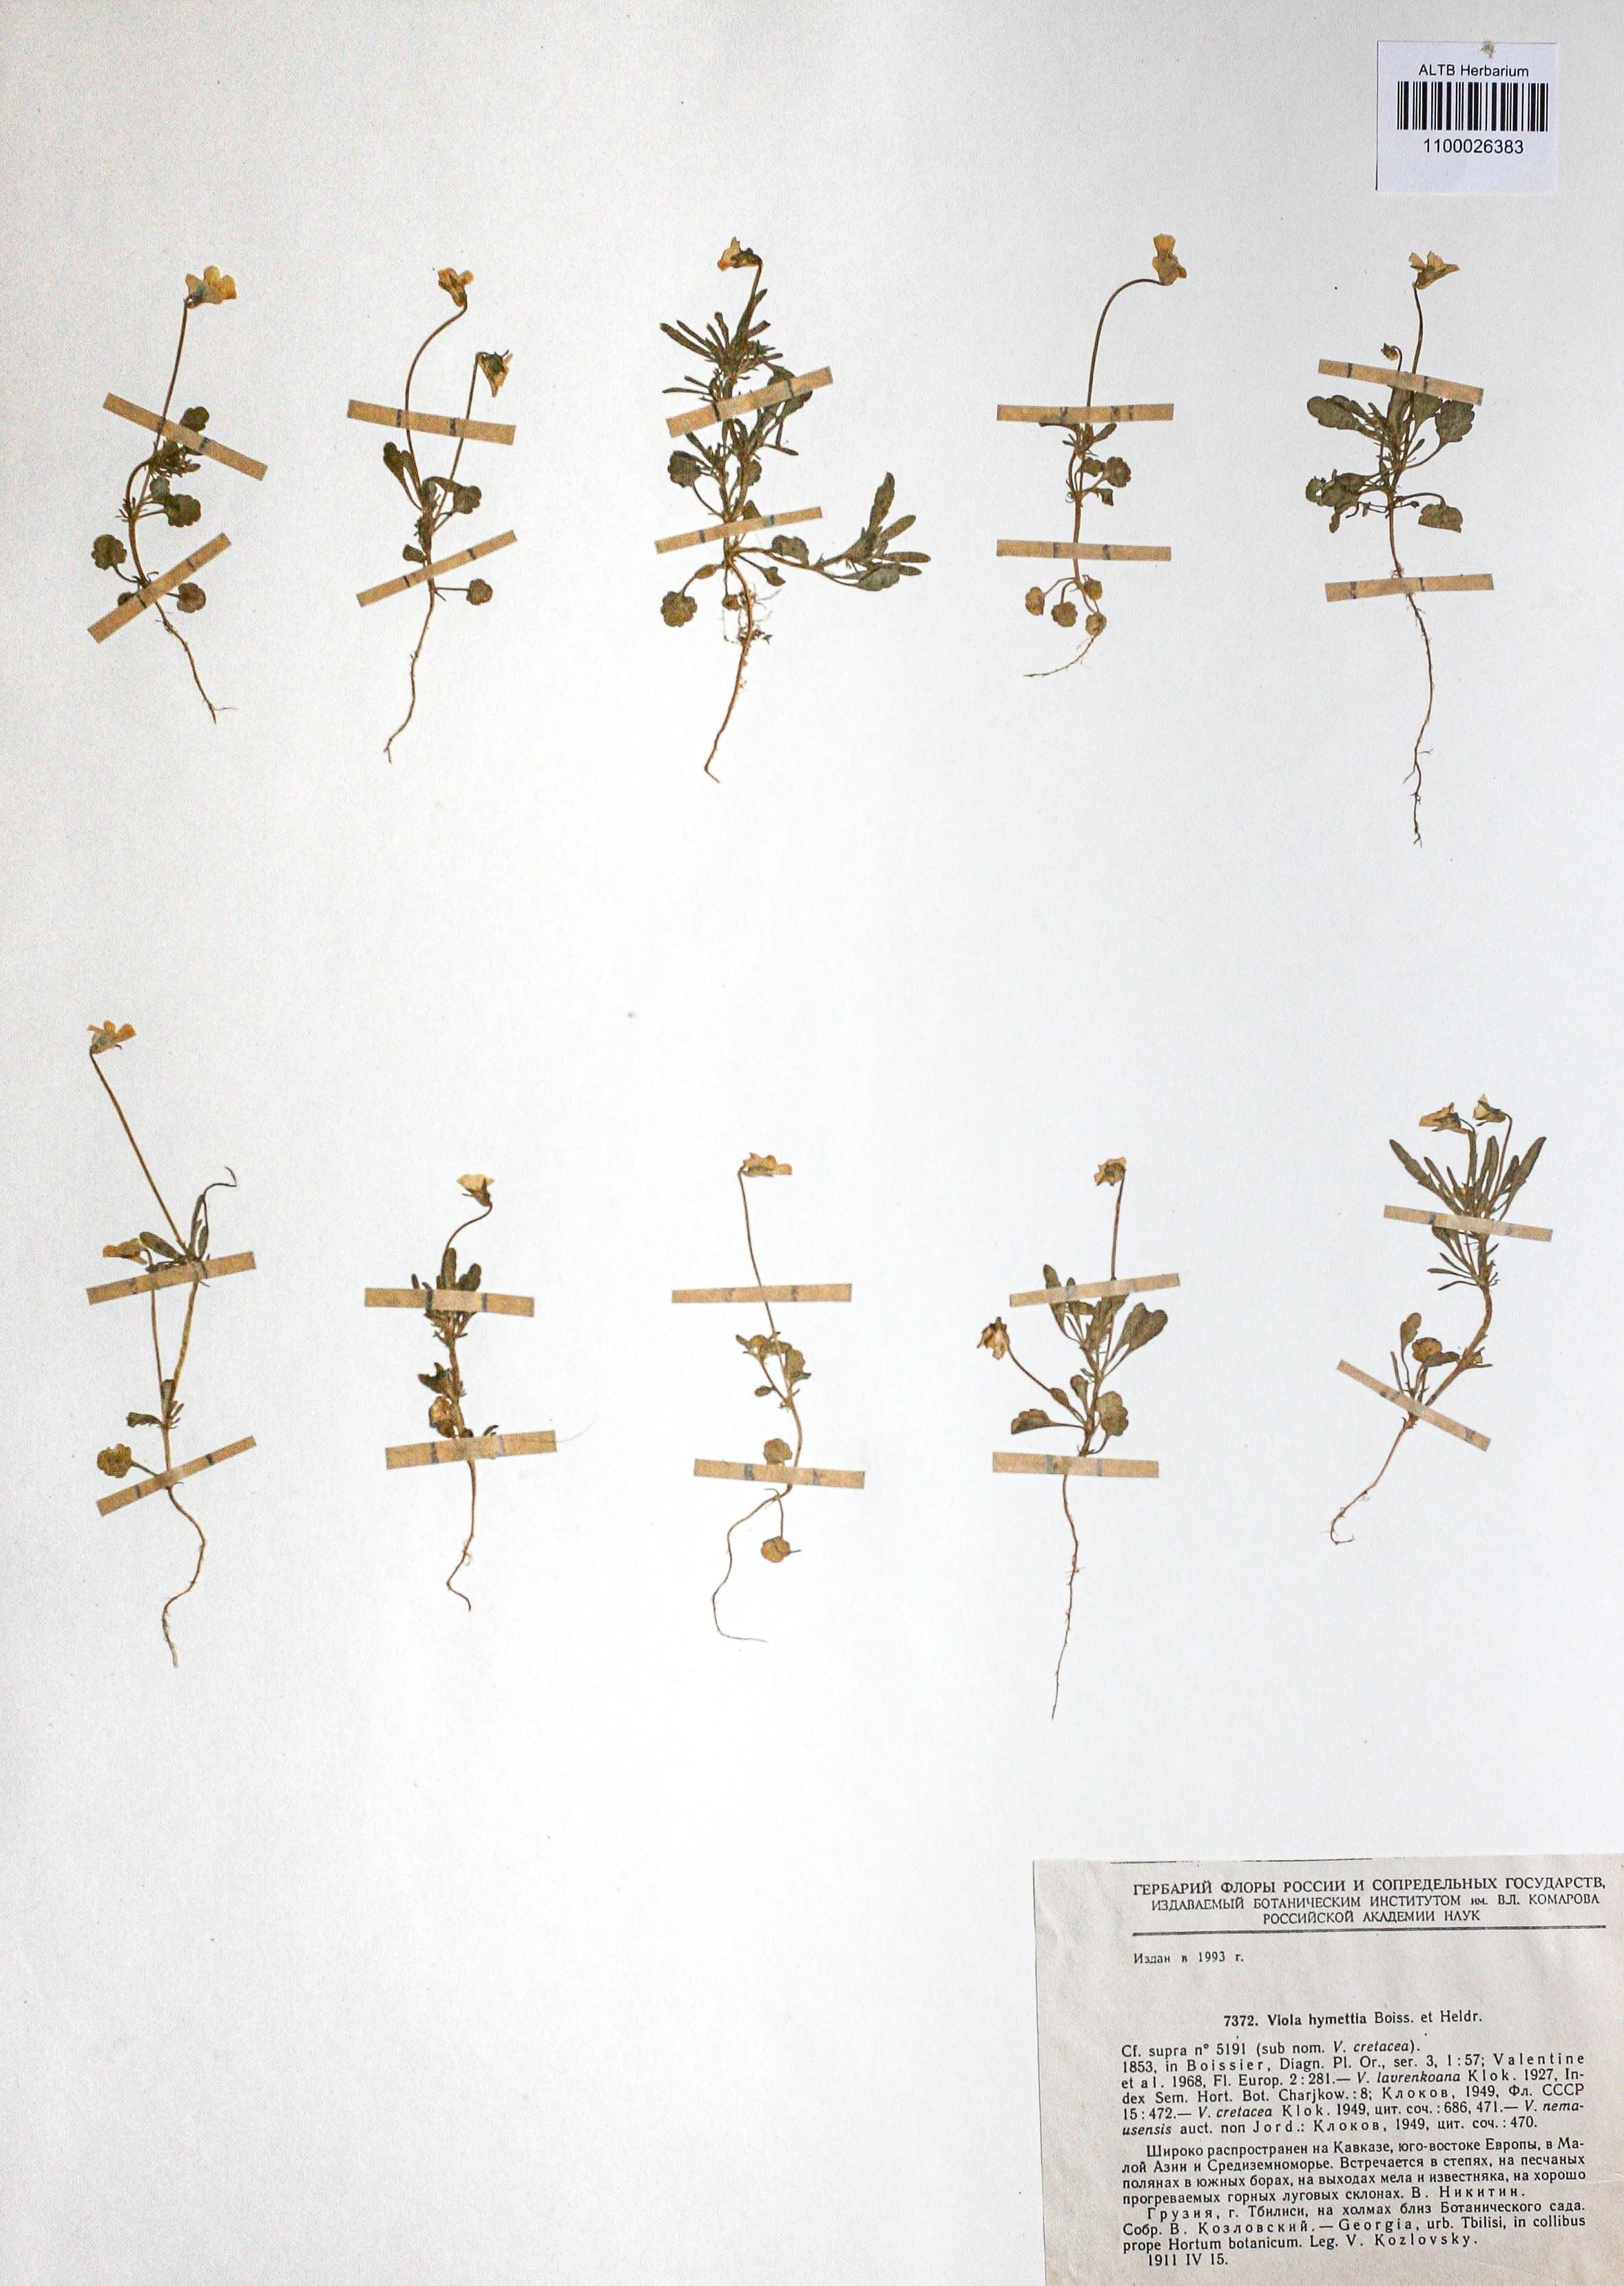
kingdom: Plantae
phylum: Tracheophyta
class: Magnoliopsida
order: Malpighiales
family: Violaceae
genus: Viola
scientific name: Viola hymettia
